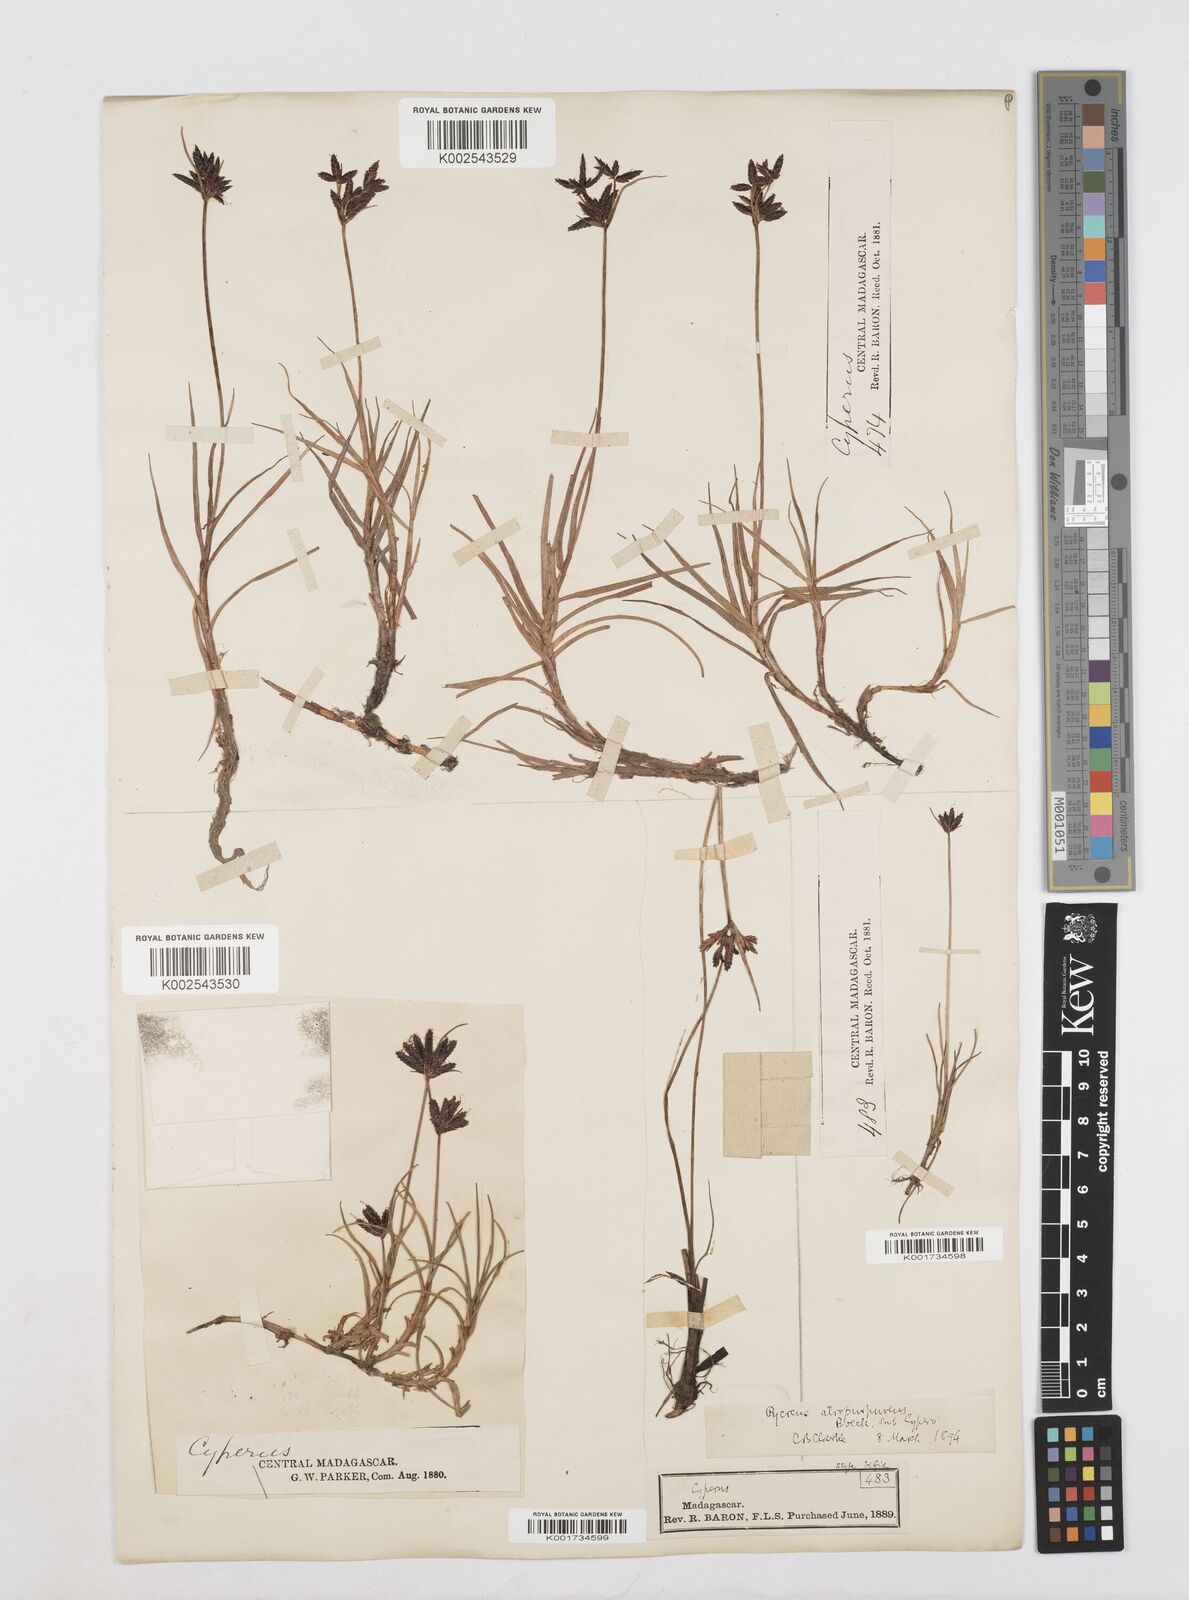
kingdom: Plantae
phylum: Tracheophyta
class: Liliopsida
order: Poales
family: Cyperaceae
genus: Cyperus
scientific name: Cyperus chermezonii
